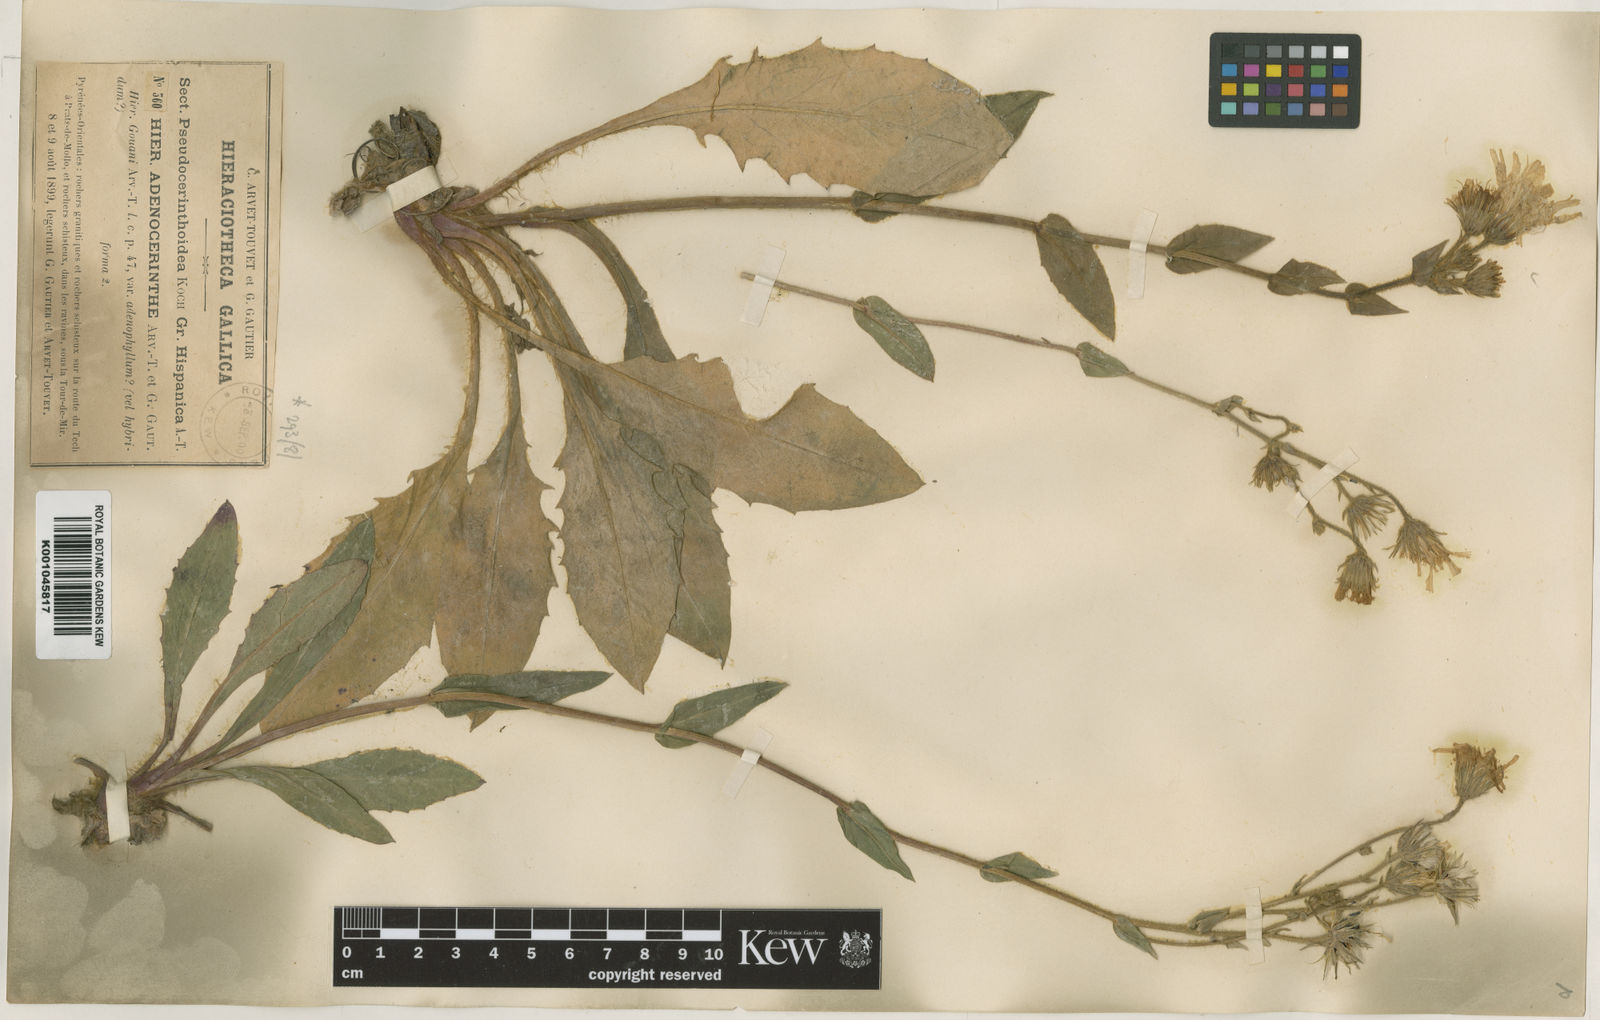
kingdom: Plantae
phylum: Tracheophyta
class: Magnoliopsida
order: Asterales
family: Asteraceae
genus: Hieracium
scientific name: Hieracium
